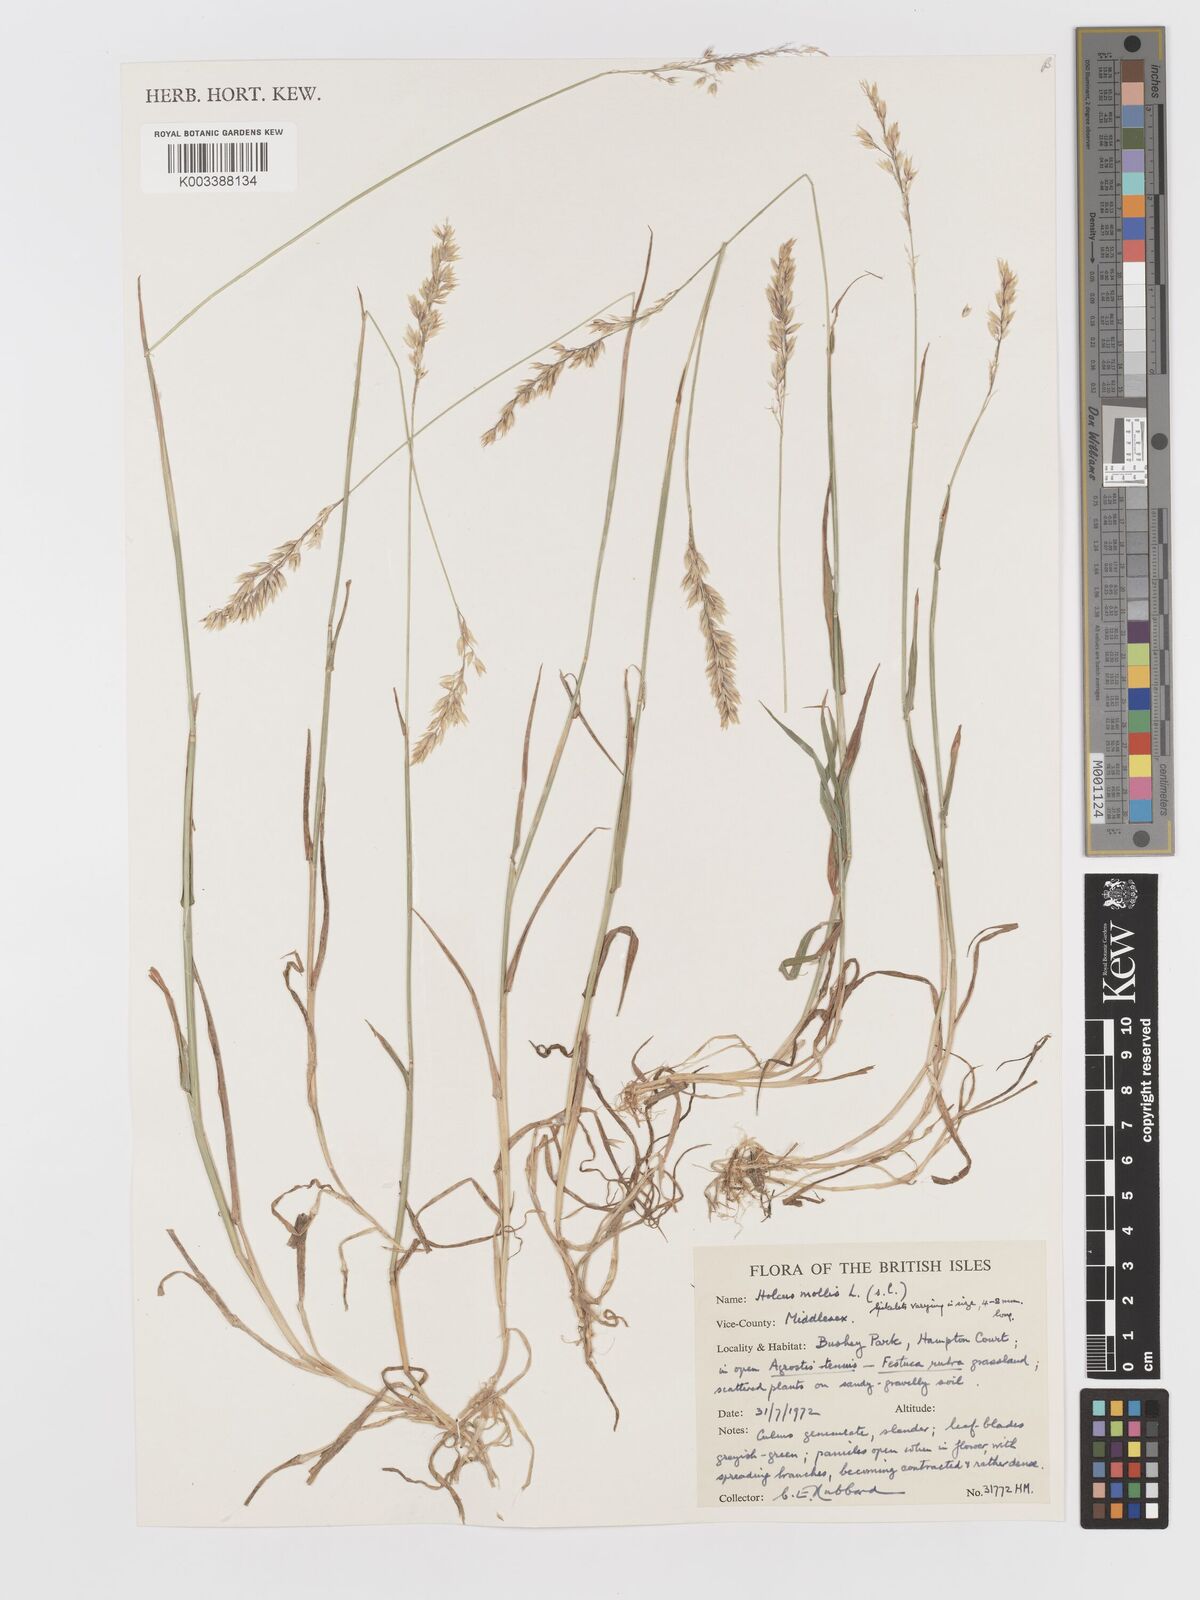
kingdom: Plantae
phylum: Tracheophyta
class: Liliopsida
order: Poales
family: Poaceae
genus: Holcus
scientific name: Holcus mollis
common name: Creeping velvetgrass
